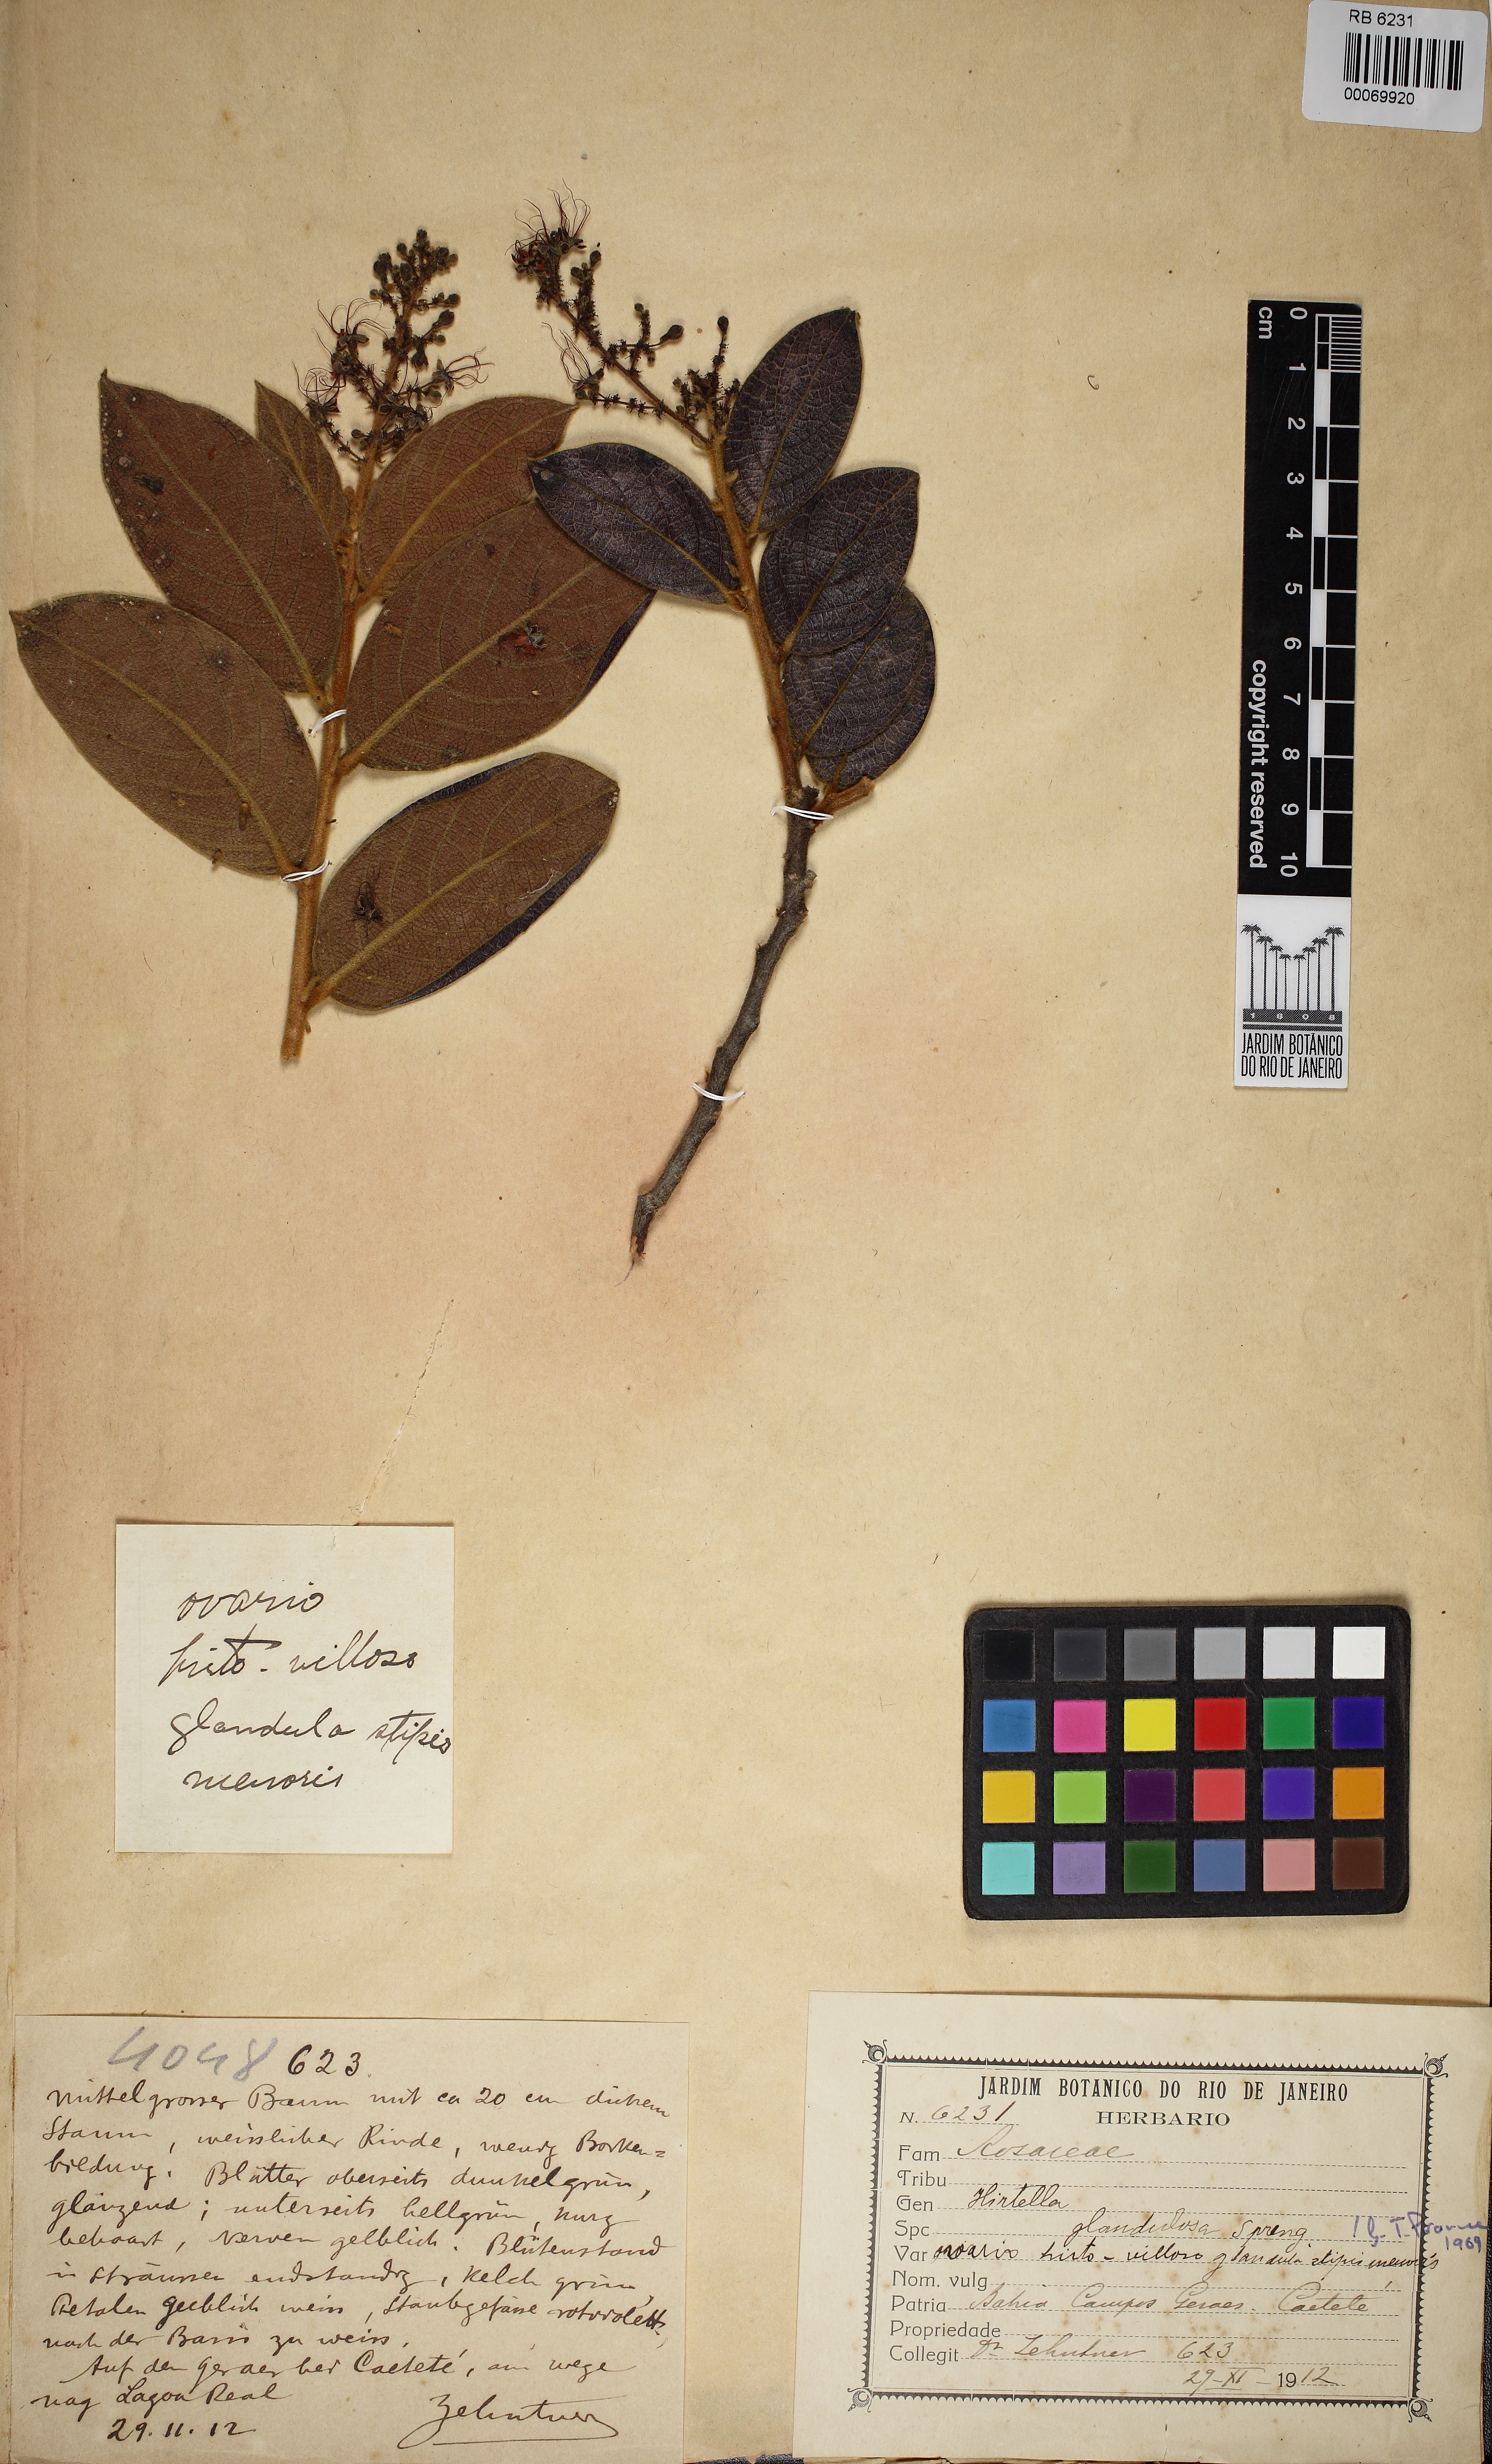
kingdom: Plantae
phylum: Tracheophyta
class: Magnoliopsida
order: Malpighiales
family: Chrysobalanaceae
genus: Hirtella
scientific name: Hirtella glandulosa
